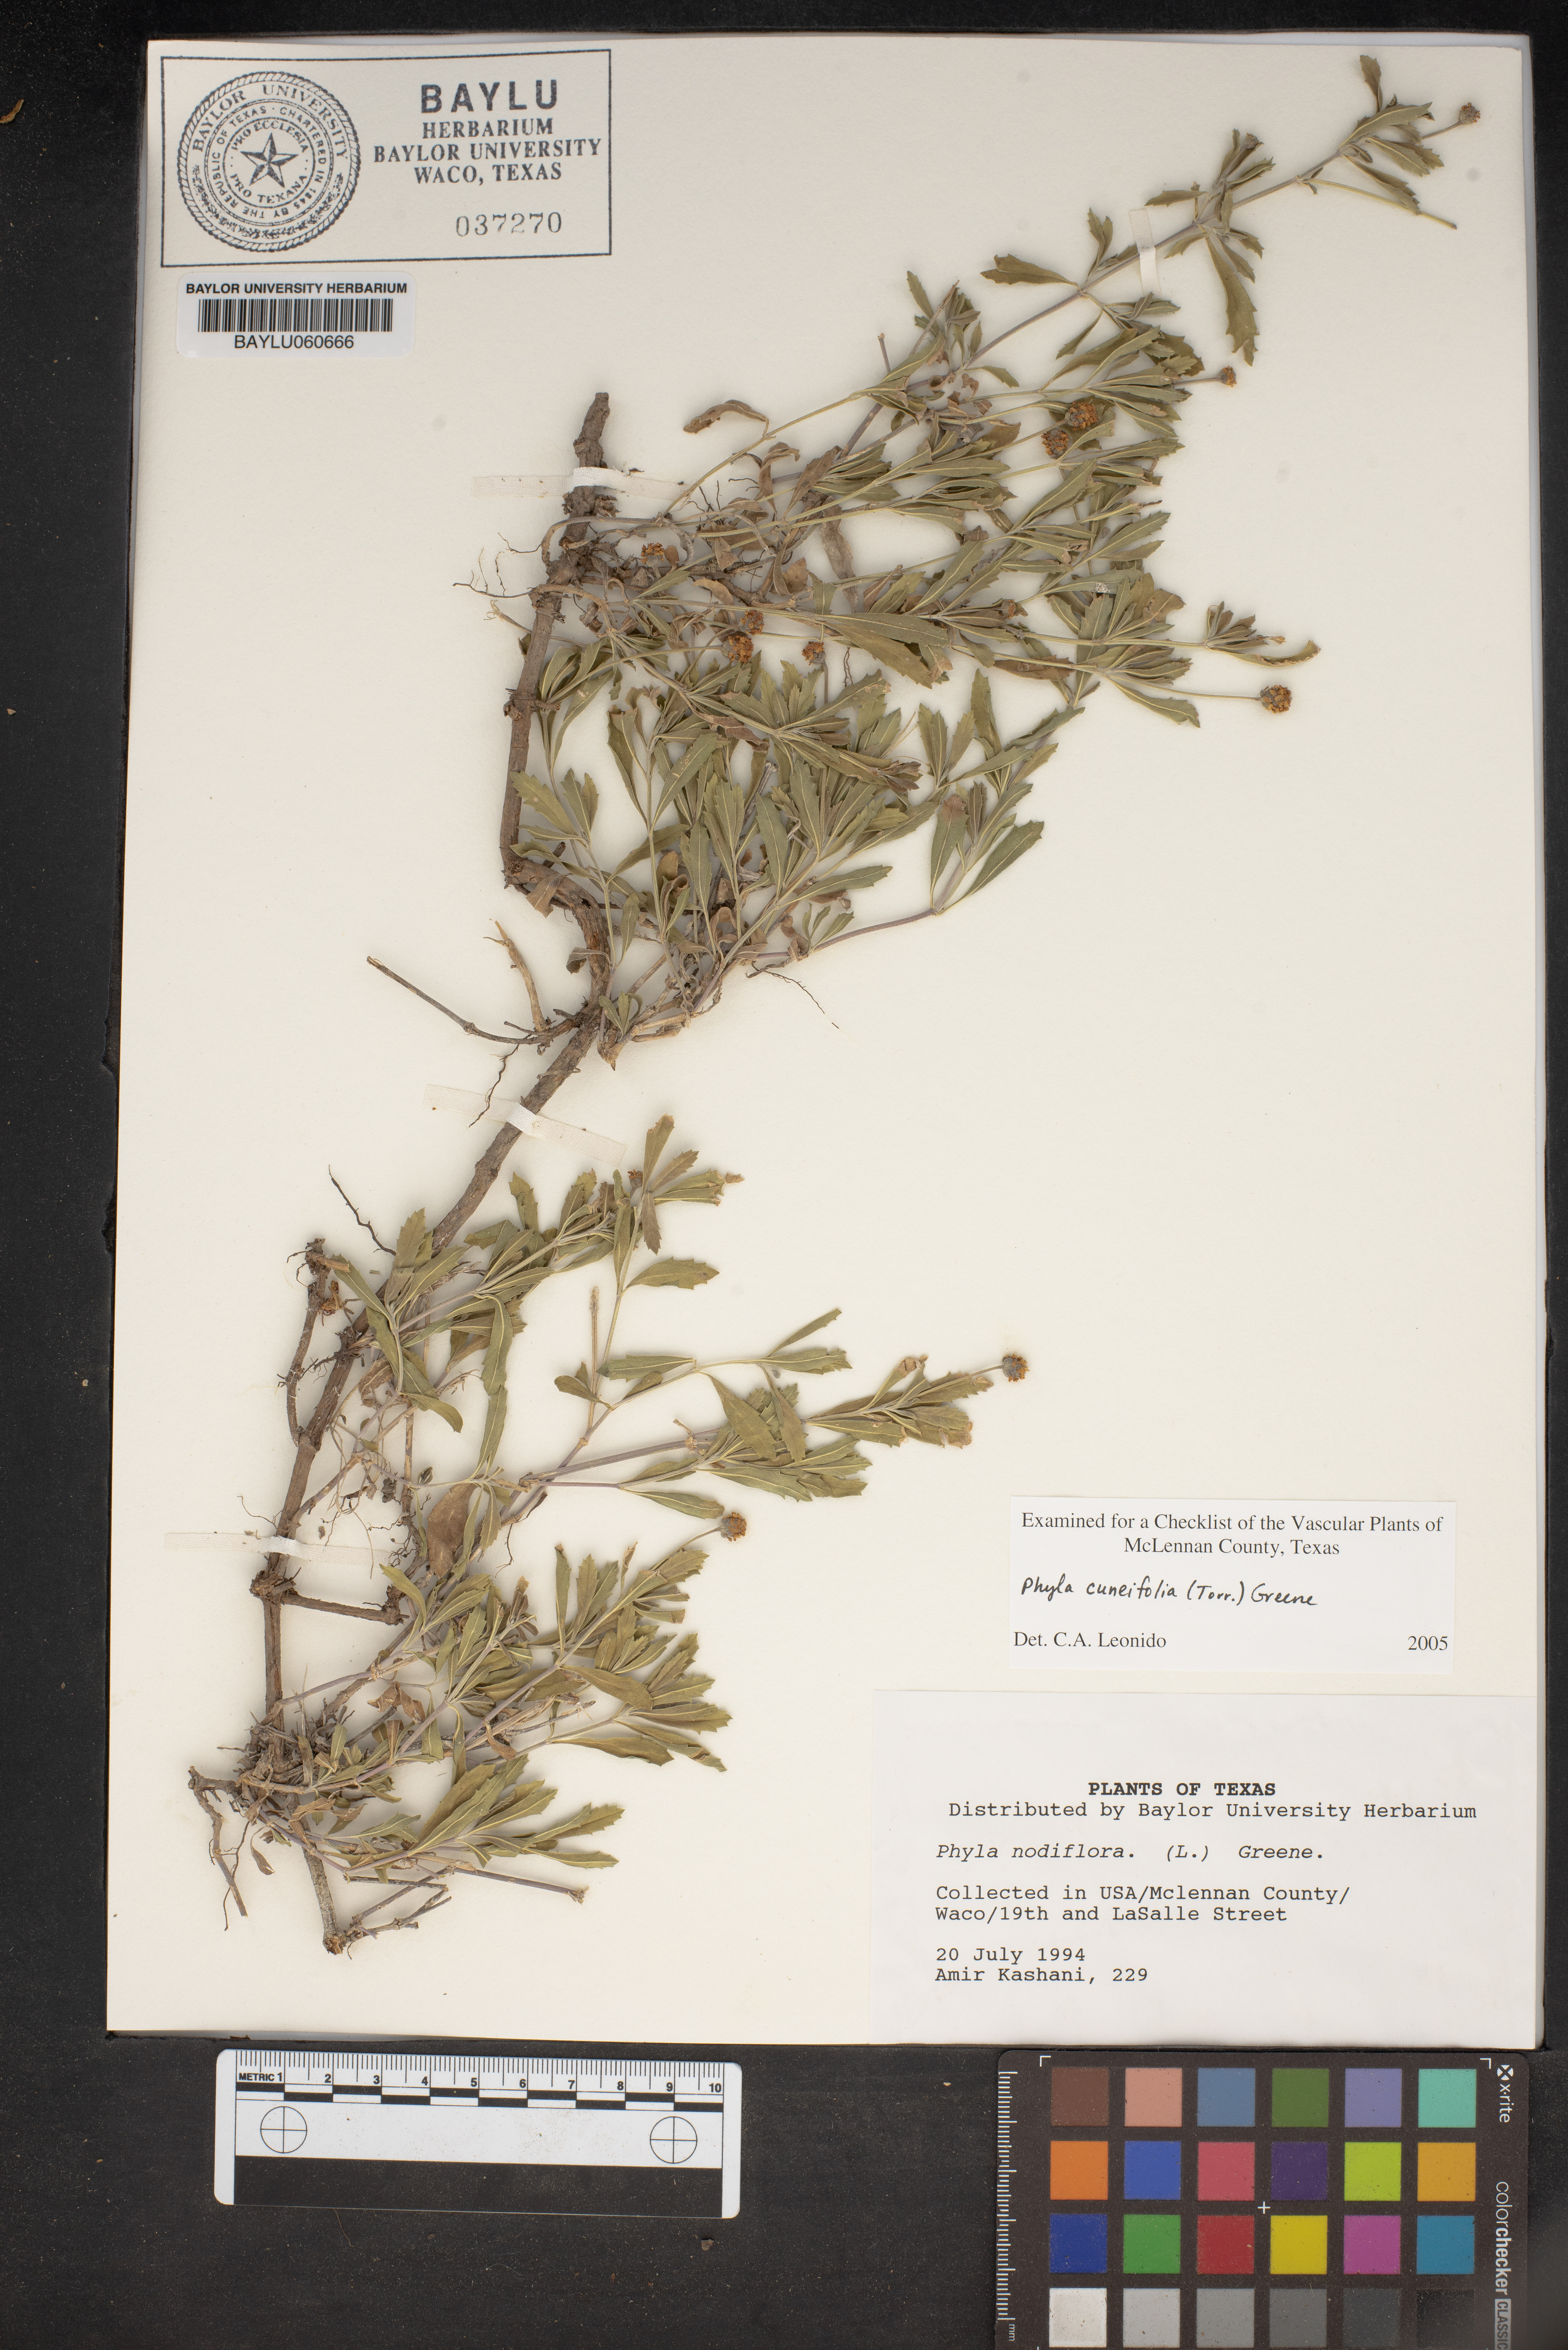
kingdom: Plantae
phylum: Tracheophyta
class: Magnoliopsida
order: Lamiales
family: Verbenaceae
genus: Phyla
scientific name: Phyla cuneifolia
